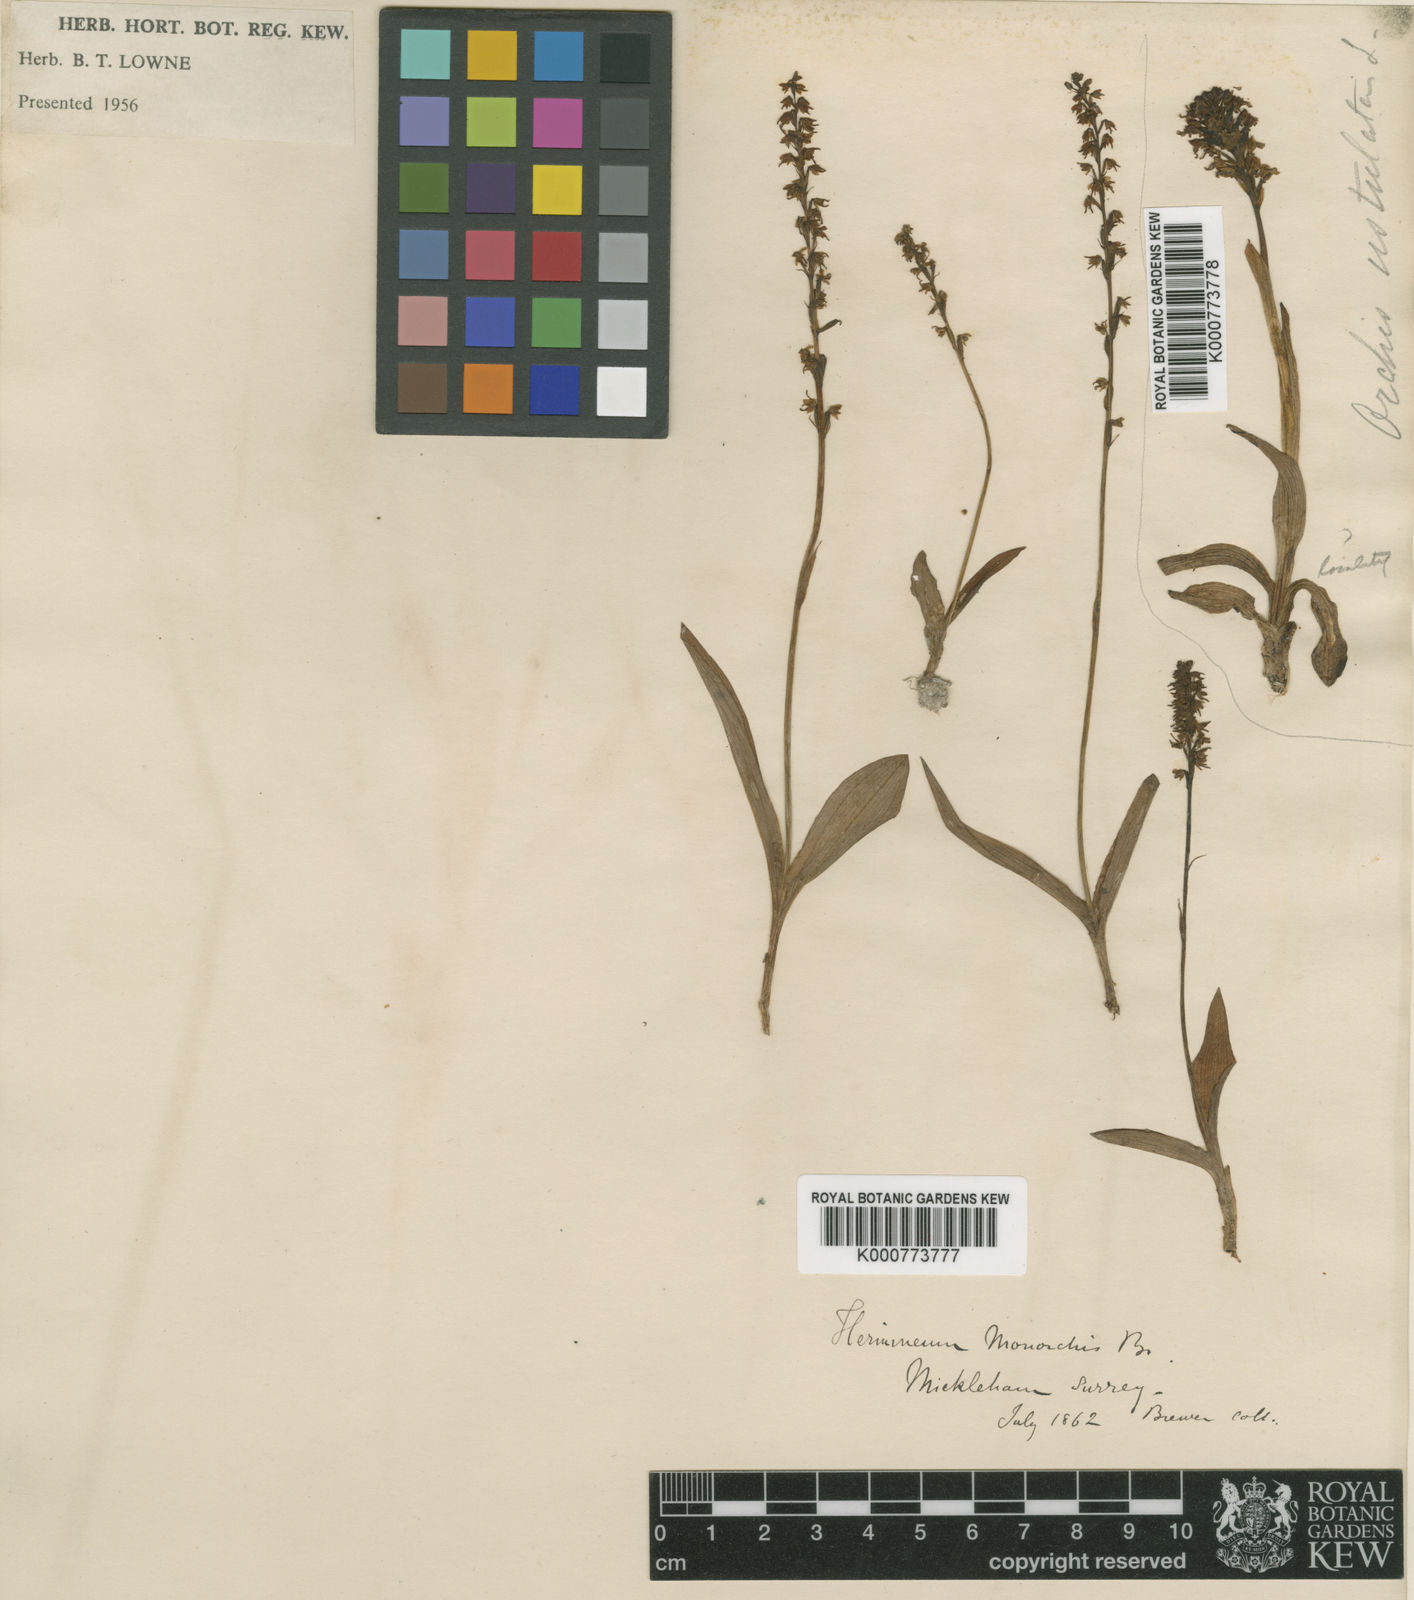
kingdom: Plantae
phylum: Tracheophyta
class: Liliopsida
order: Asparagales
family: Orchidaceae
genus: Herminium
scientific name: Herminium monorchis
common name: Musk orchid
